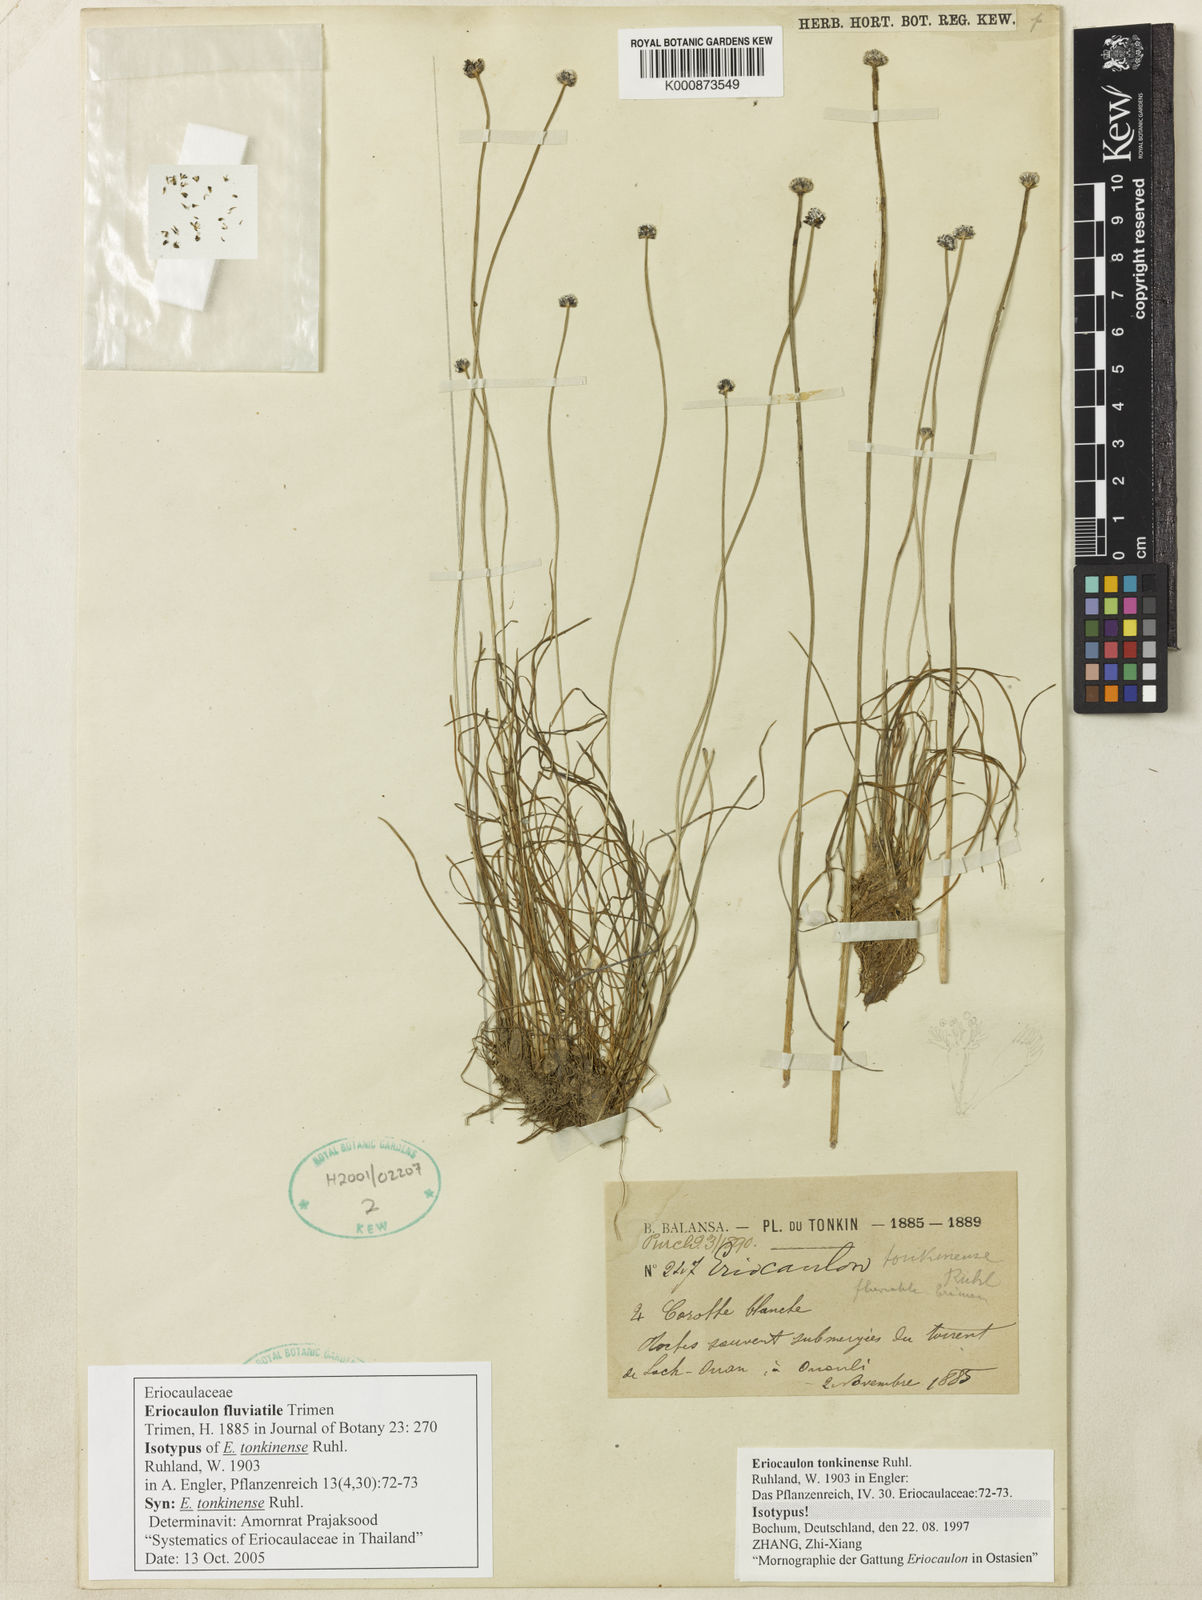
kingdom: Plantae
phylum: Tracheophyta
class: Liliopsida
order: Poales
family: Eriocaulaceae
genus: Eriocaulon
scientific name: Eriocaulon fluviatile
